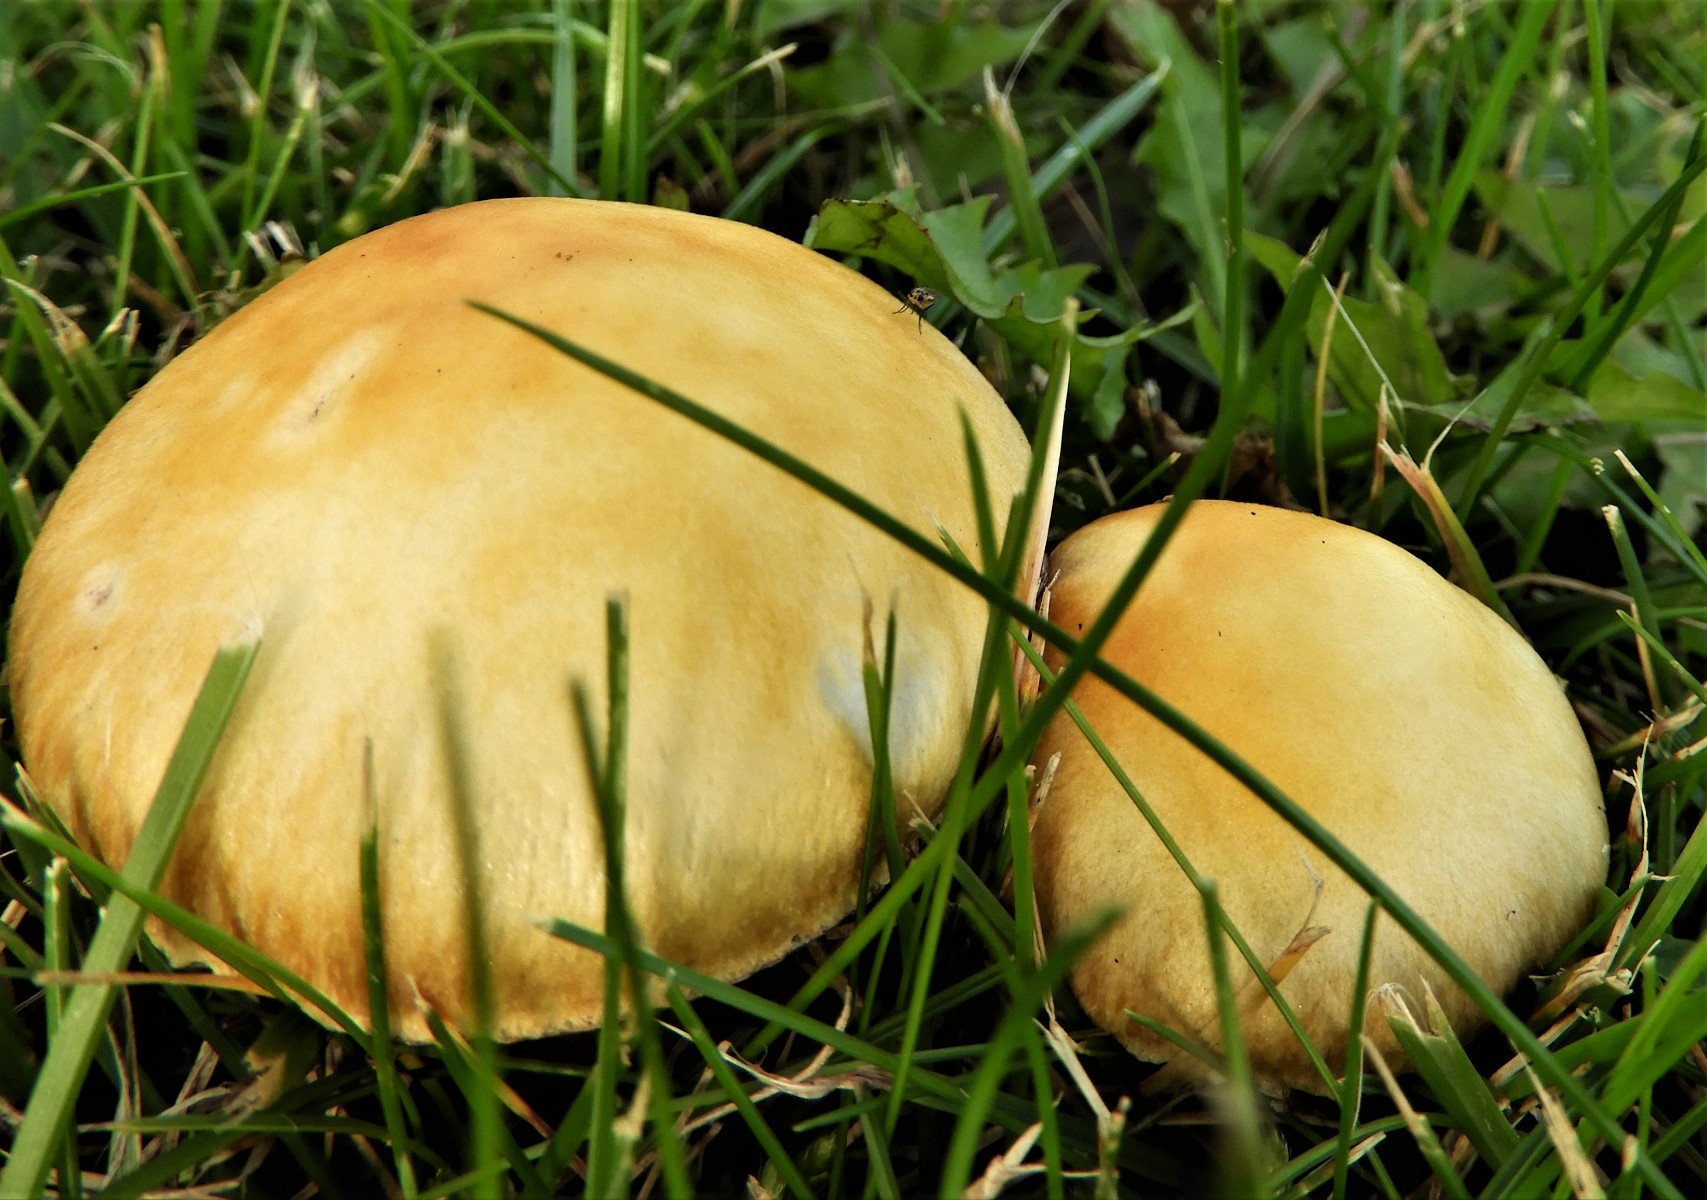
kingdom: Fungi
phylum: Basidiomycota
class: Agaricomycetes
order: Agaricales
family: Hymenogastraceae
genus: Psilocybe
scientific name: Psilocybe coronilla
